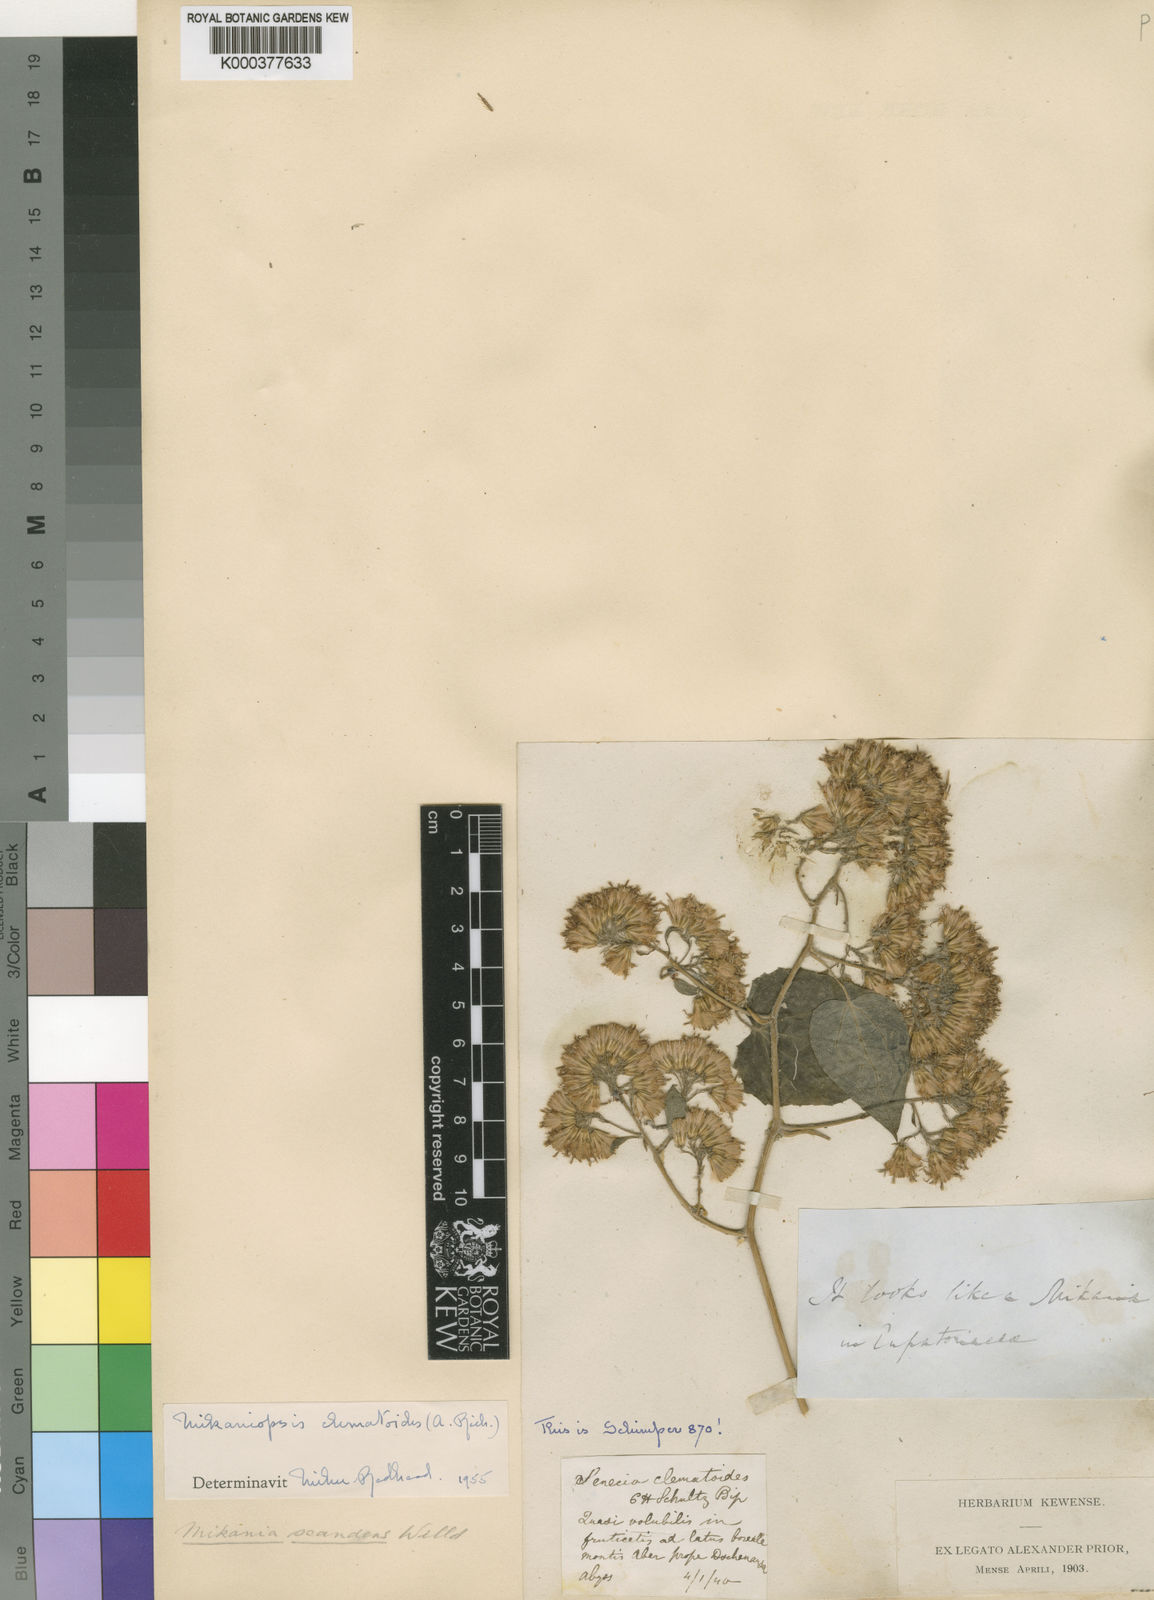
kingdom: Plantae
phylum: Tracheophyta
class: Magnoliopsida
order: Asterales
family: Asteraceae
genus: Mikaniopsis
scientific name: Mikaniopsis clematoides
